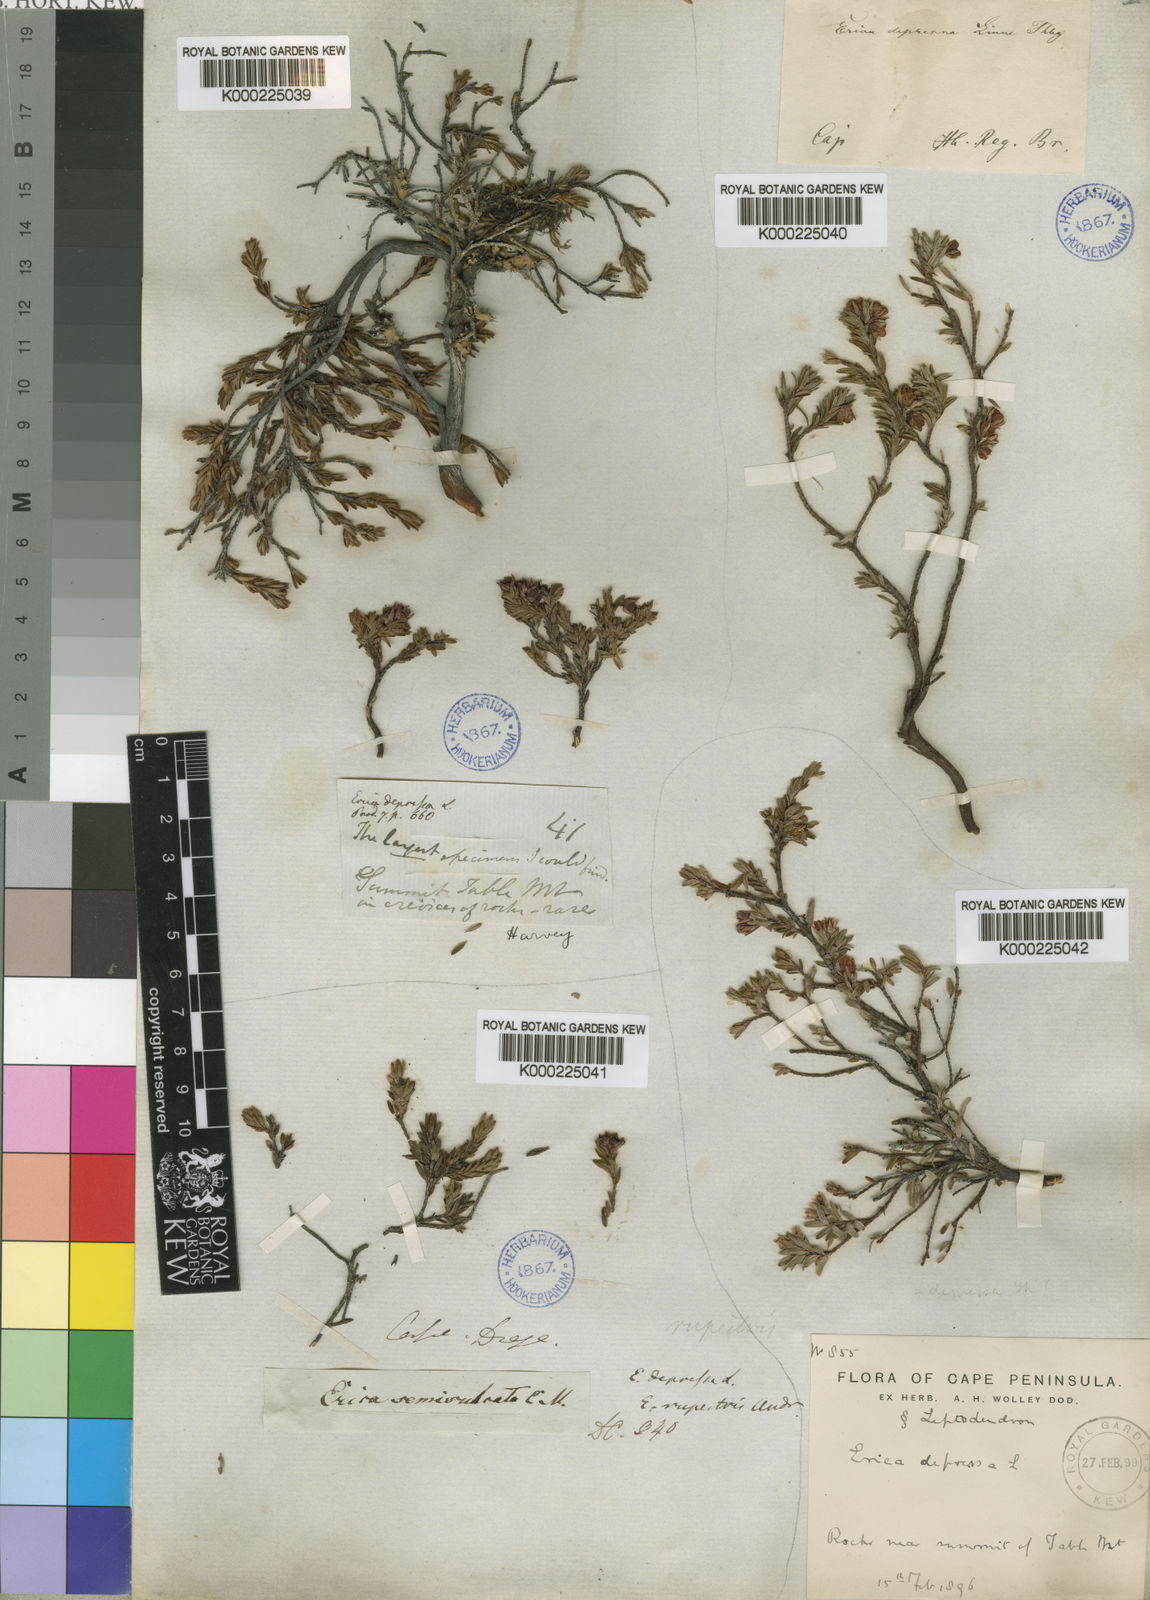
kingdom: Plantae
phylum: Tracheophyta
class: Magnoliopsida
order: Ericales
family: Ericaceae
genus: Erica
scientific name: Erica
